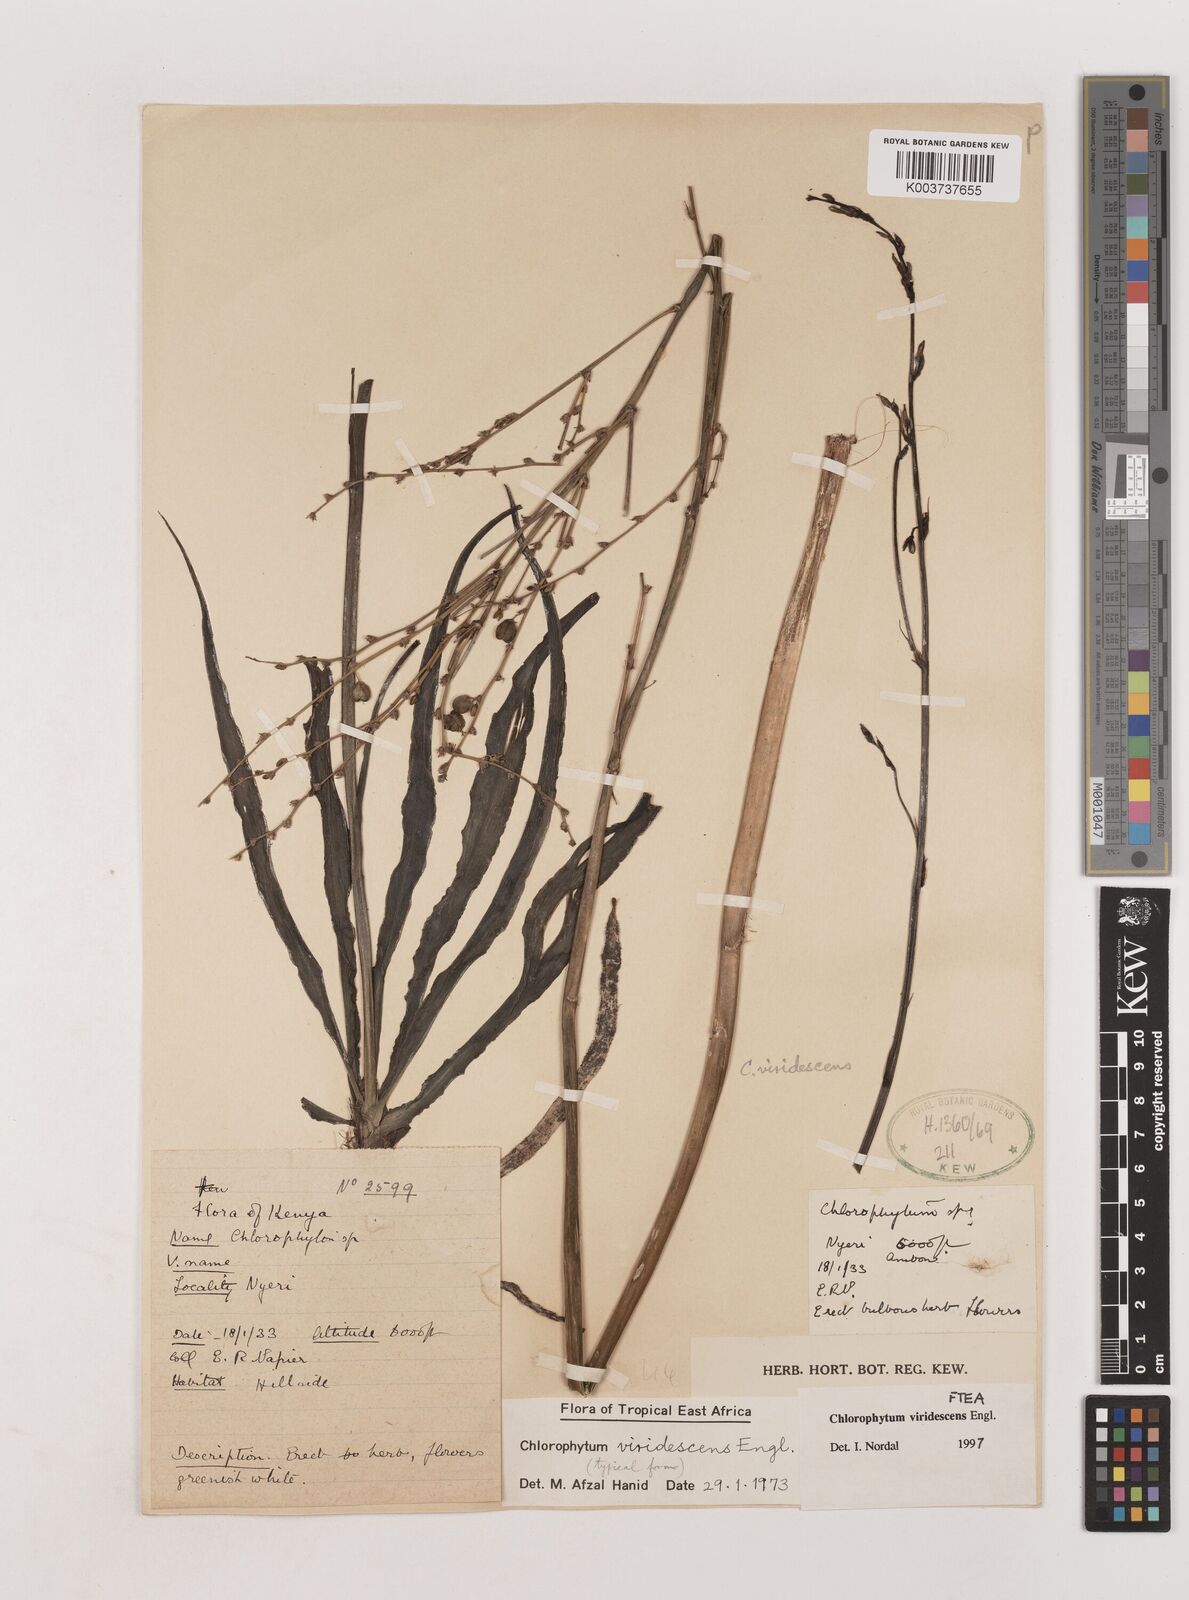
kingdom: Plantae
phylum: Tracheophyta
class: Liliopsida
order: Asparagales
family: Asparagaceae
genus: Chlorophytum
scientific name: Chlorophytum viridescens
